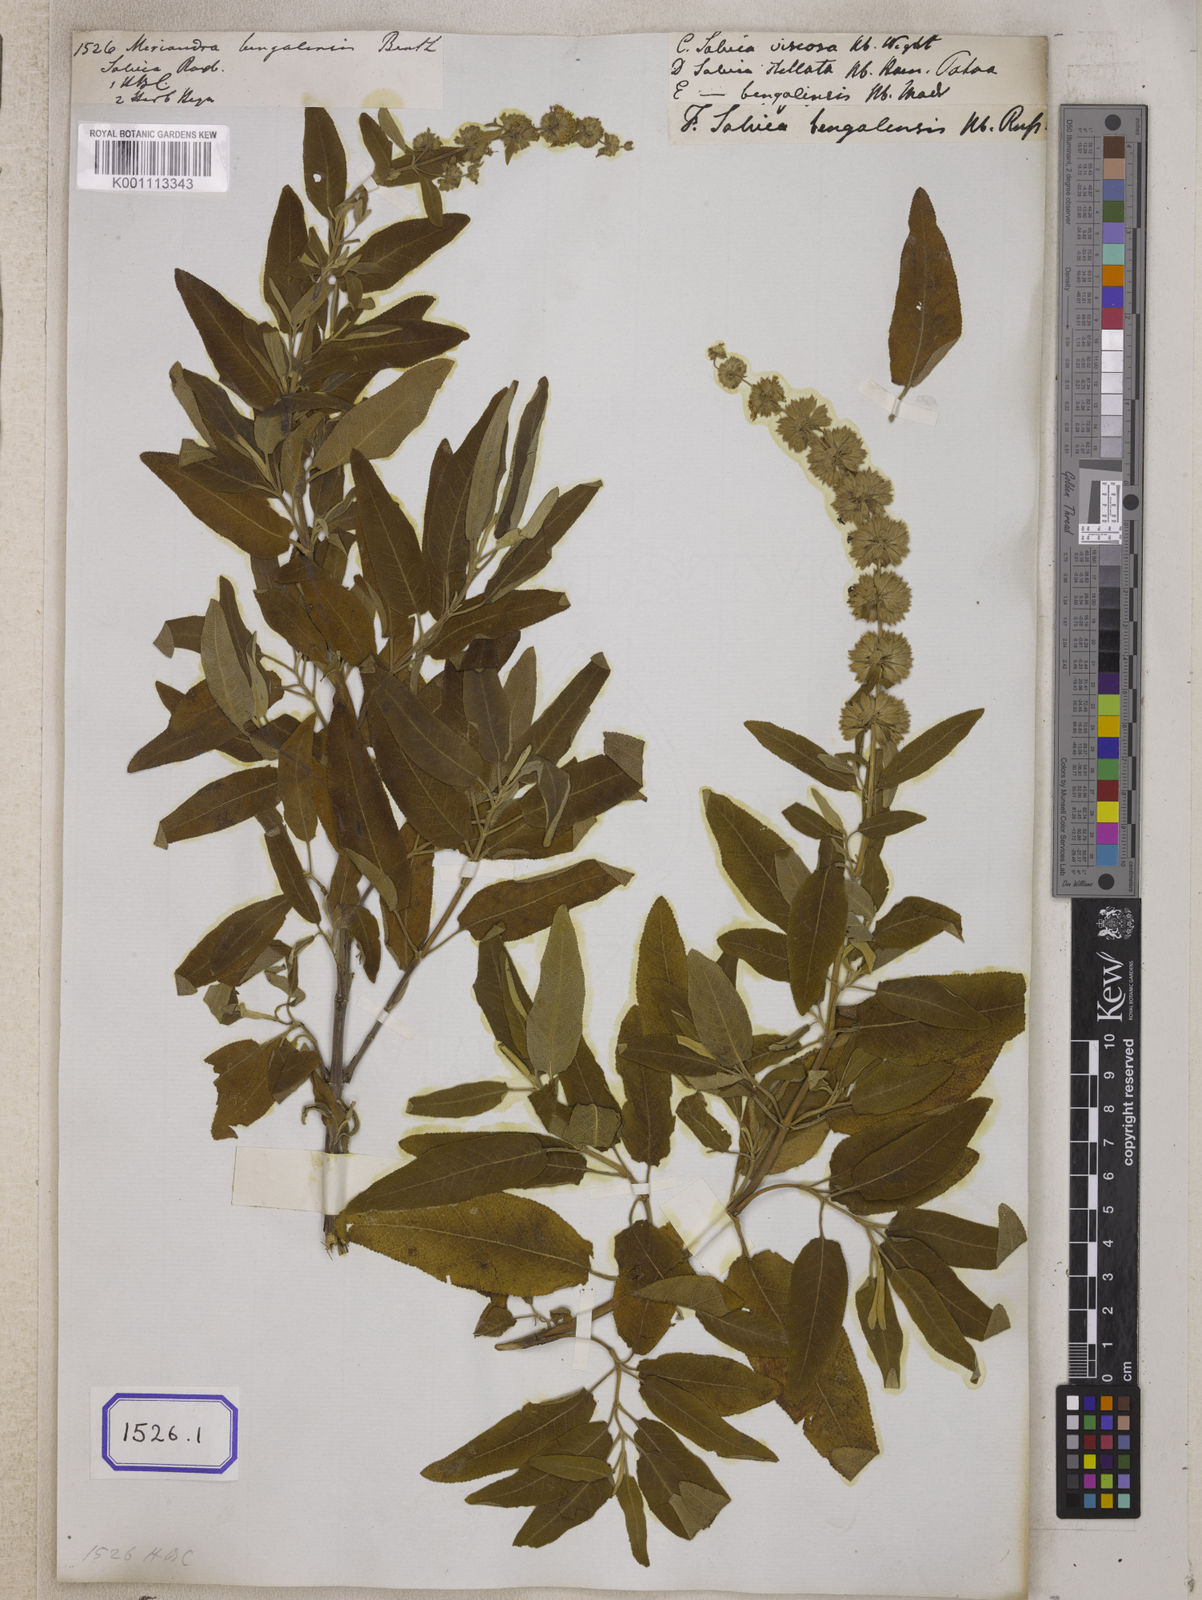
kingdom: Plantae
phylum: Tracheophyta
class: Magnoliopsida
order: Lamiales
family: Lamiaceae
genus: Salvia
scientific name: Salvia dianthera
